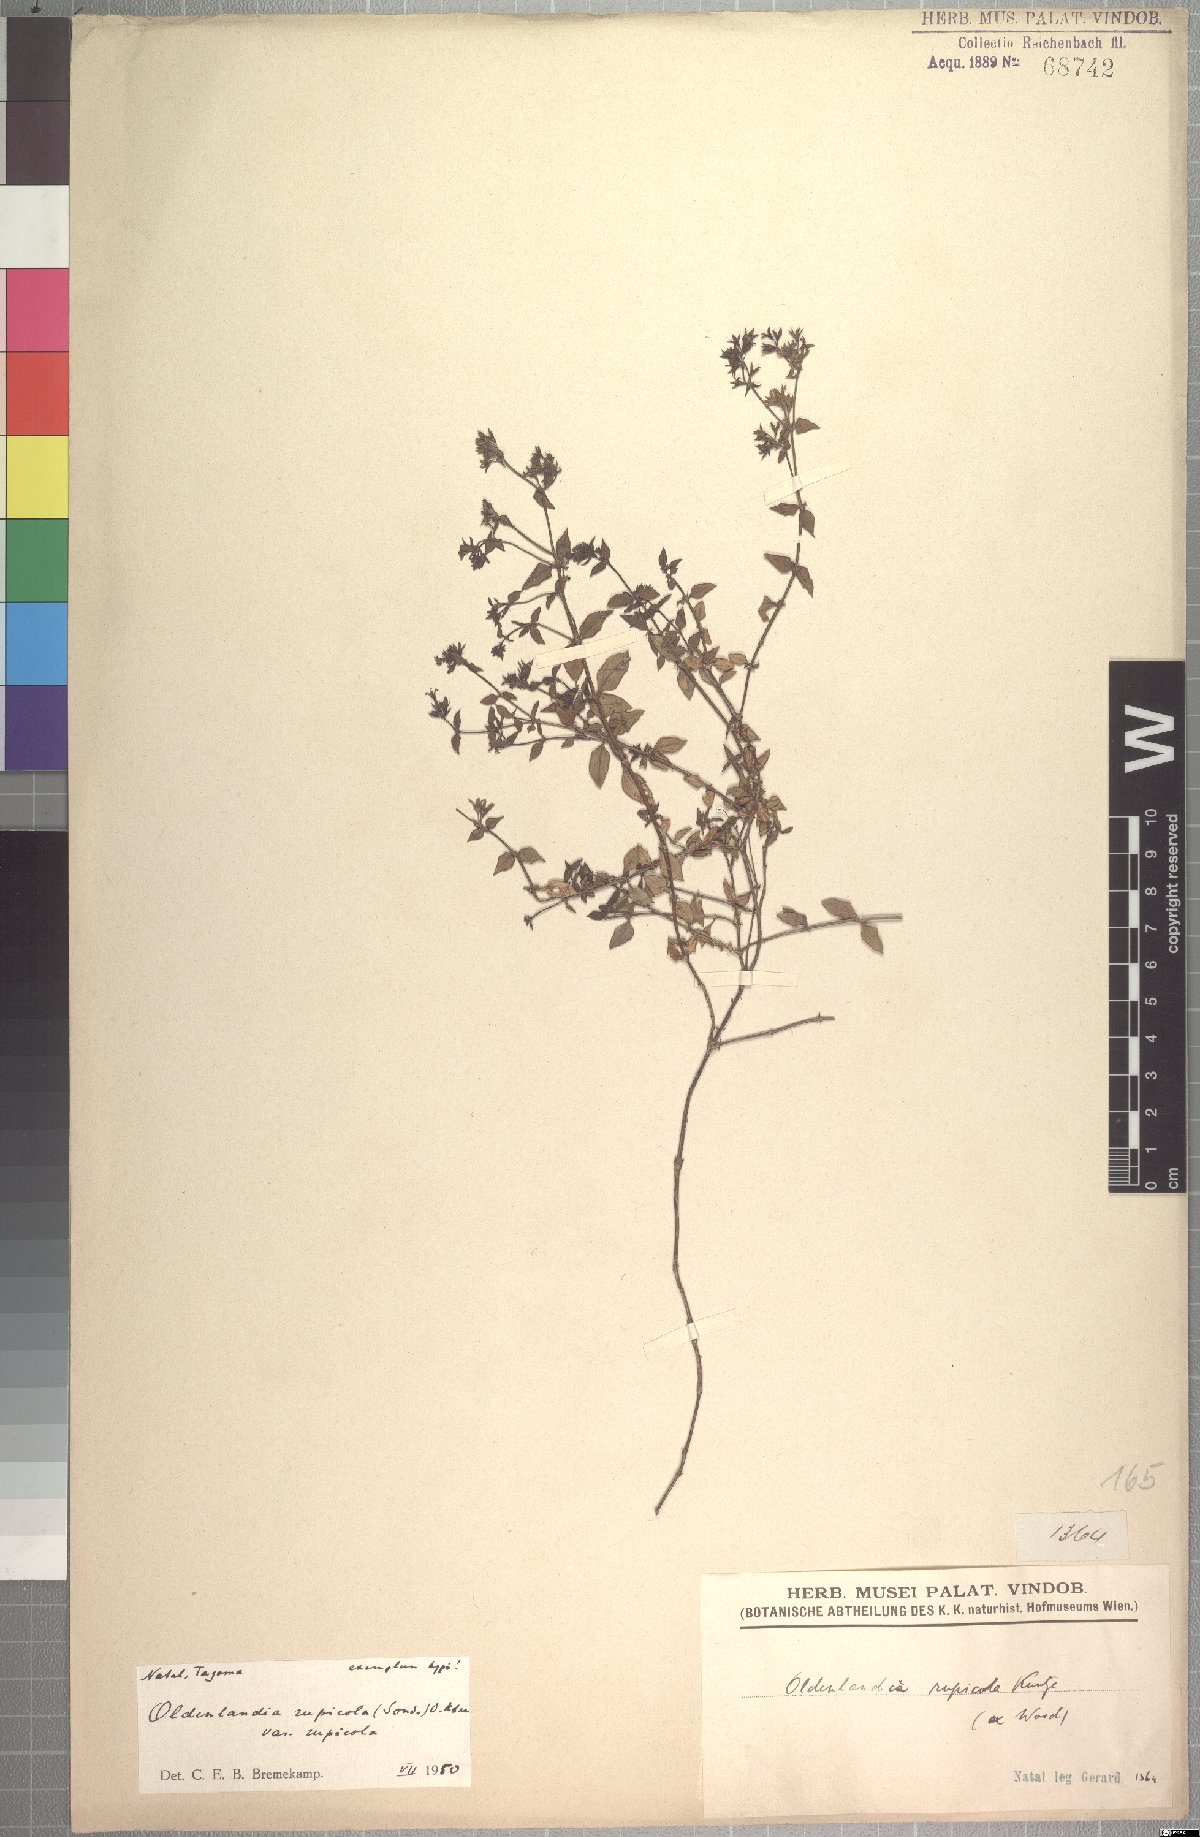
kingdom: Plantae
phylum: Tracheophyta
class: Magnoliopsida
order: Gentianales
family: Rubiaceae
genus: Oldenlandia
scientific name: Oldenlandia rupicola
